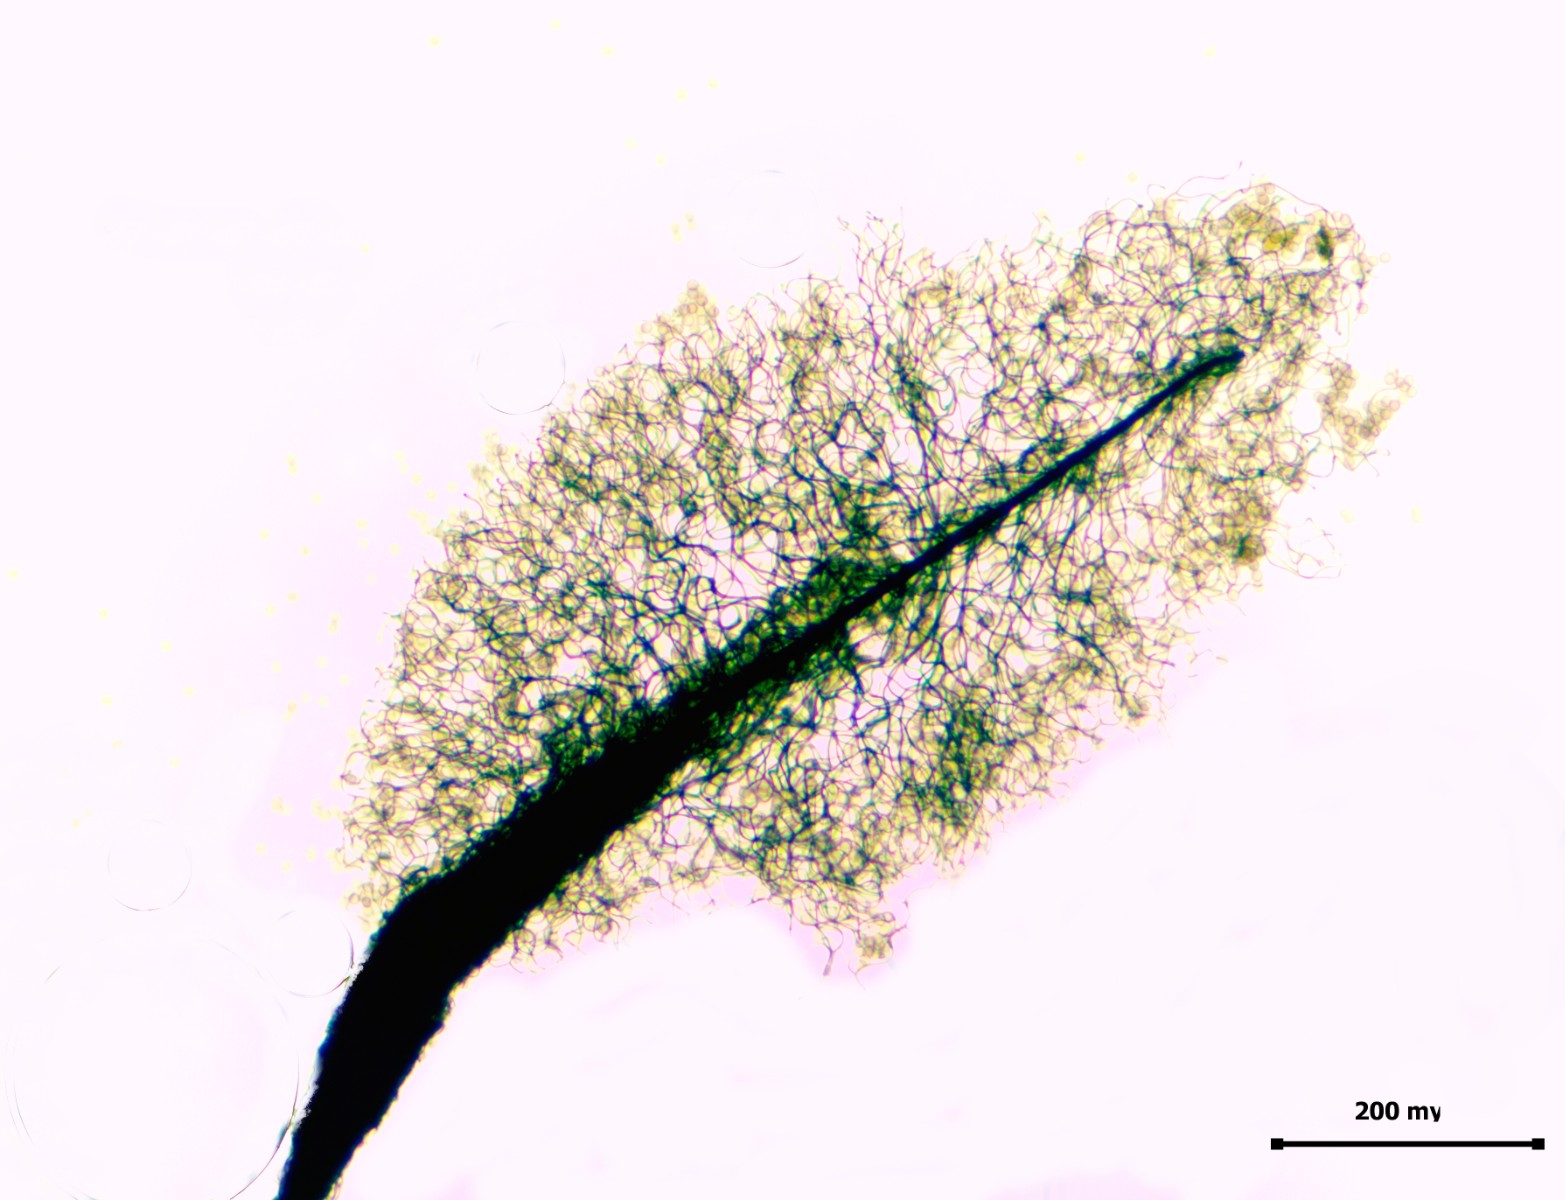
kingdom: Protozoa
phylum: Mycetozoa
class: Myxomycetes
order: Stemonitidales
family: Stemonitidaceae
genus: Comatricha
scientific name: Comatricha tenerrima
